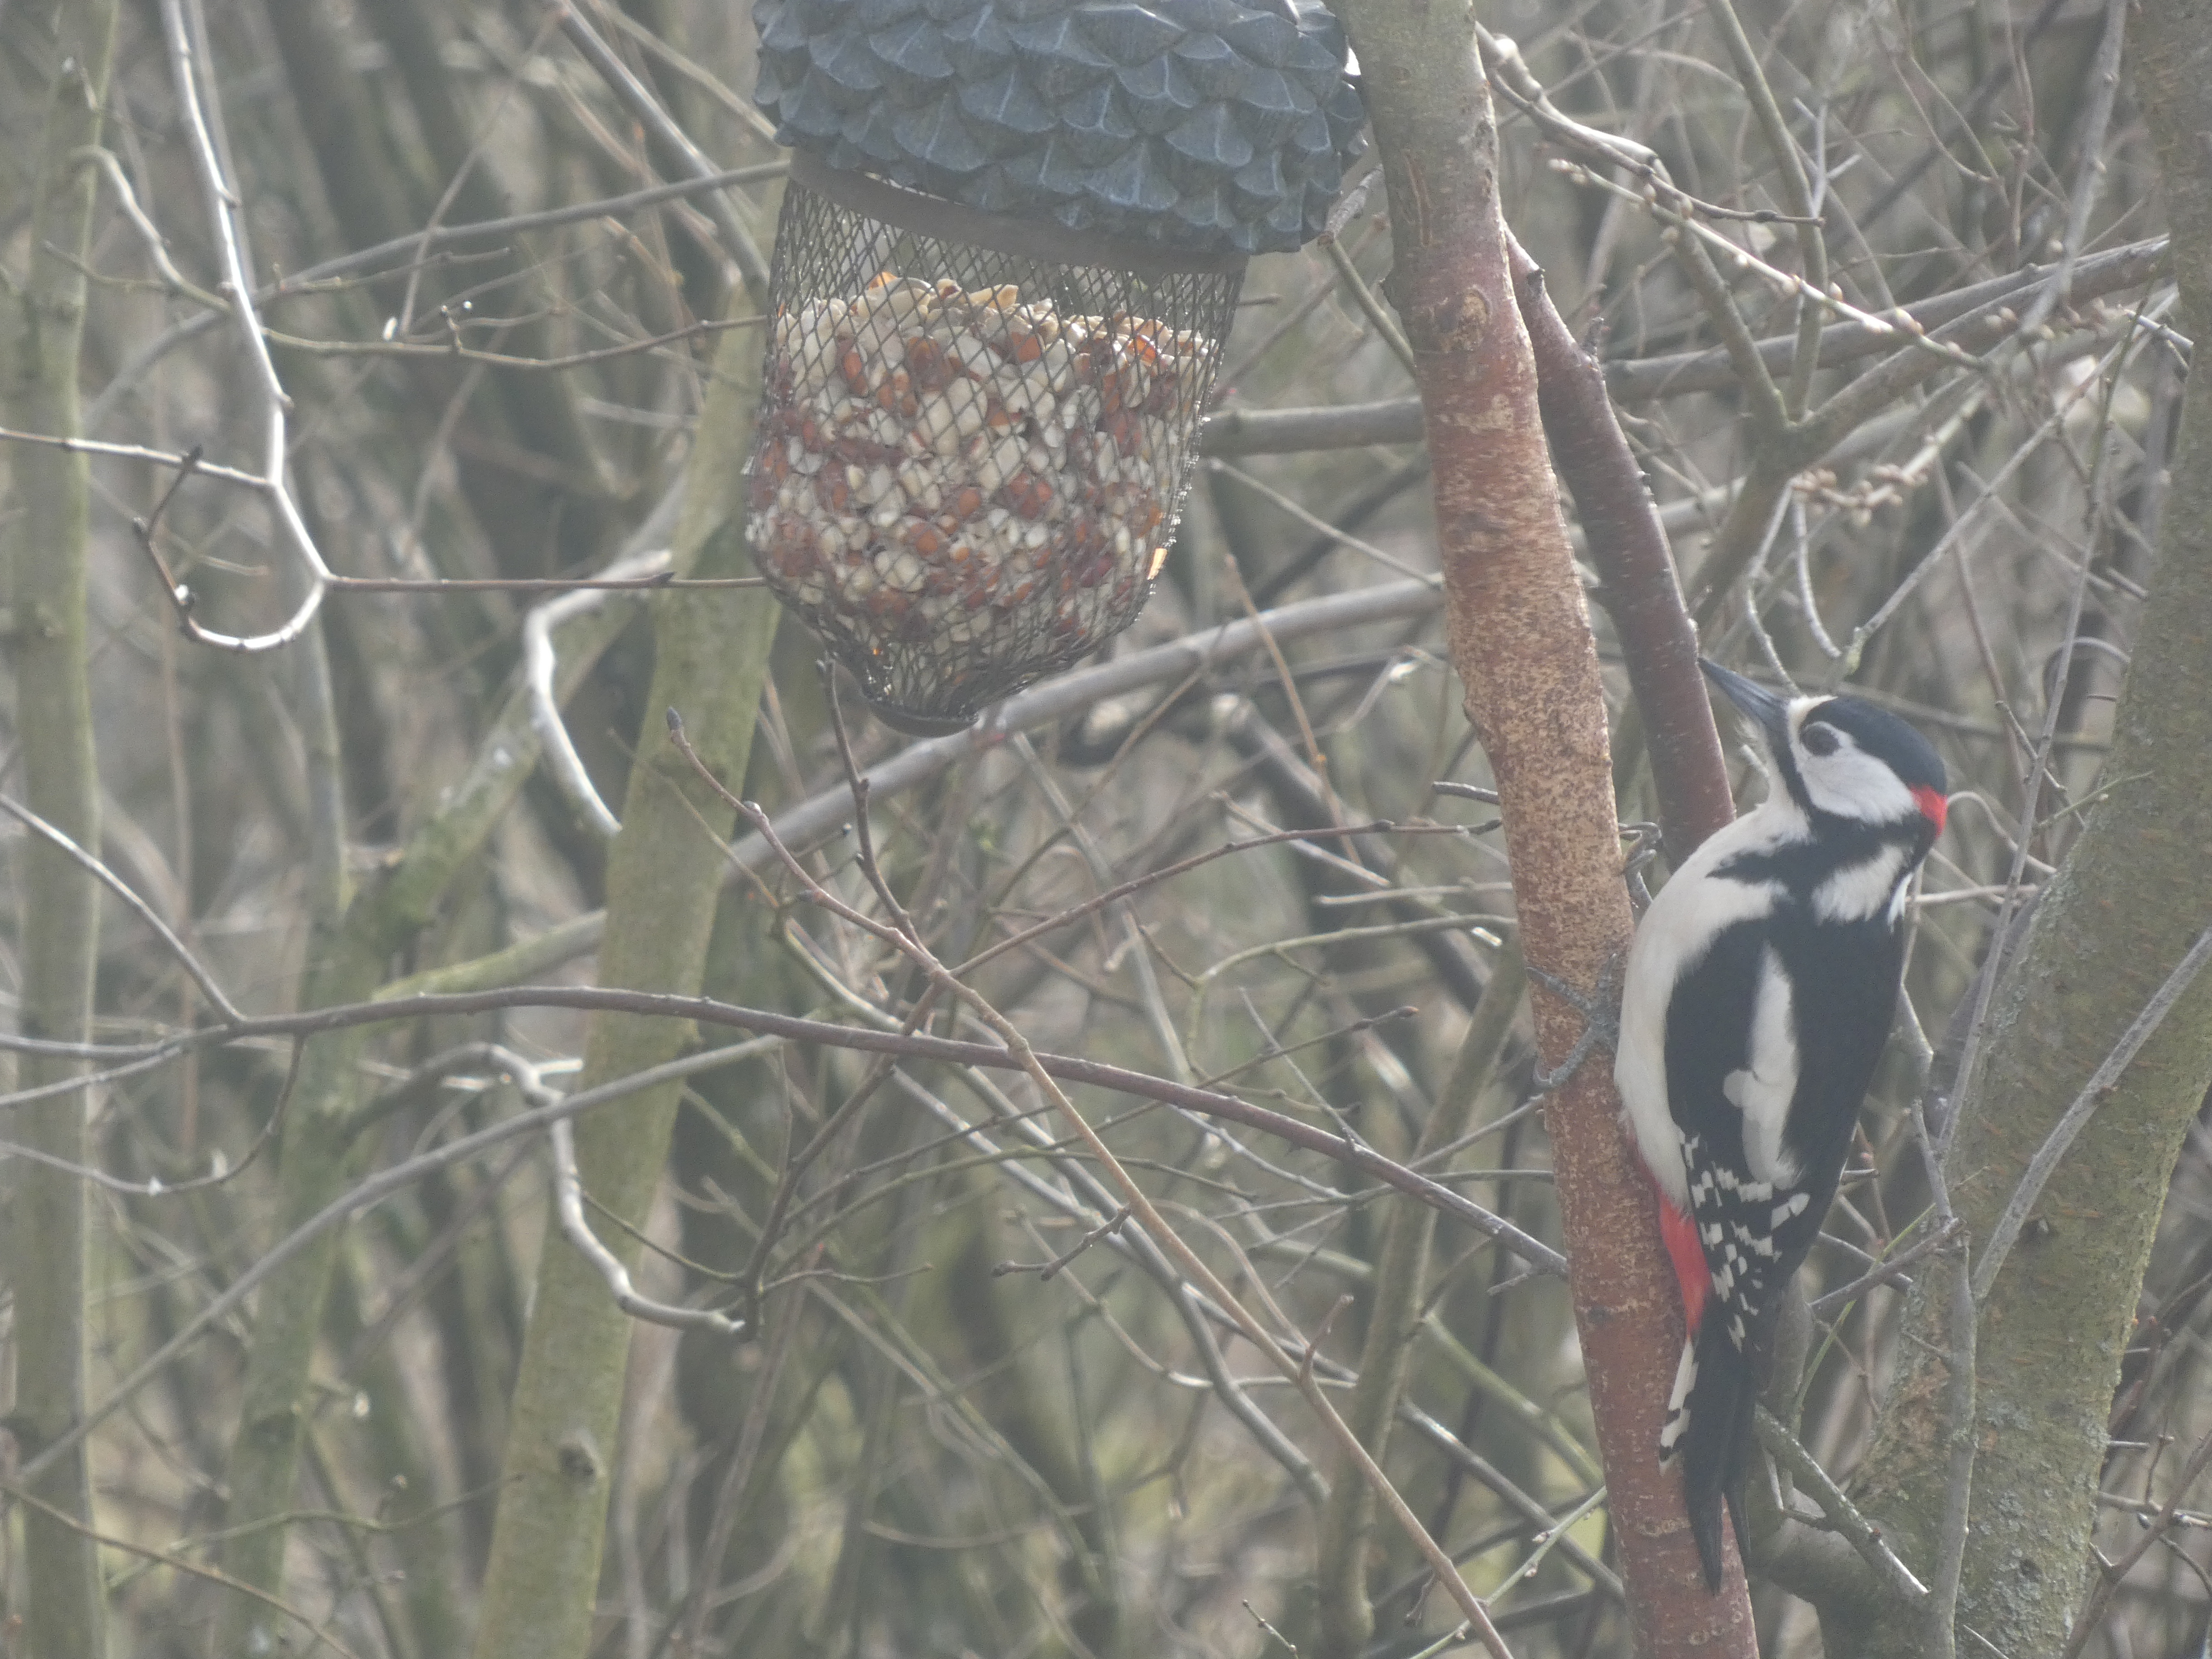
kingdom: Animalia
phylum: Chordata
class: Aves
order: Piciformes
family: Picidae
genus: Dendrocopos
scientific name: Dendrocopos major
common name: Stor flagspætte
